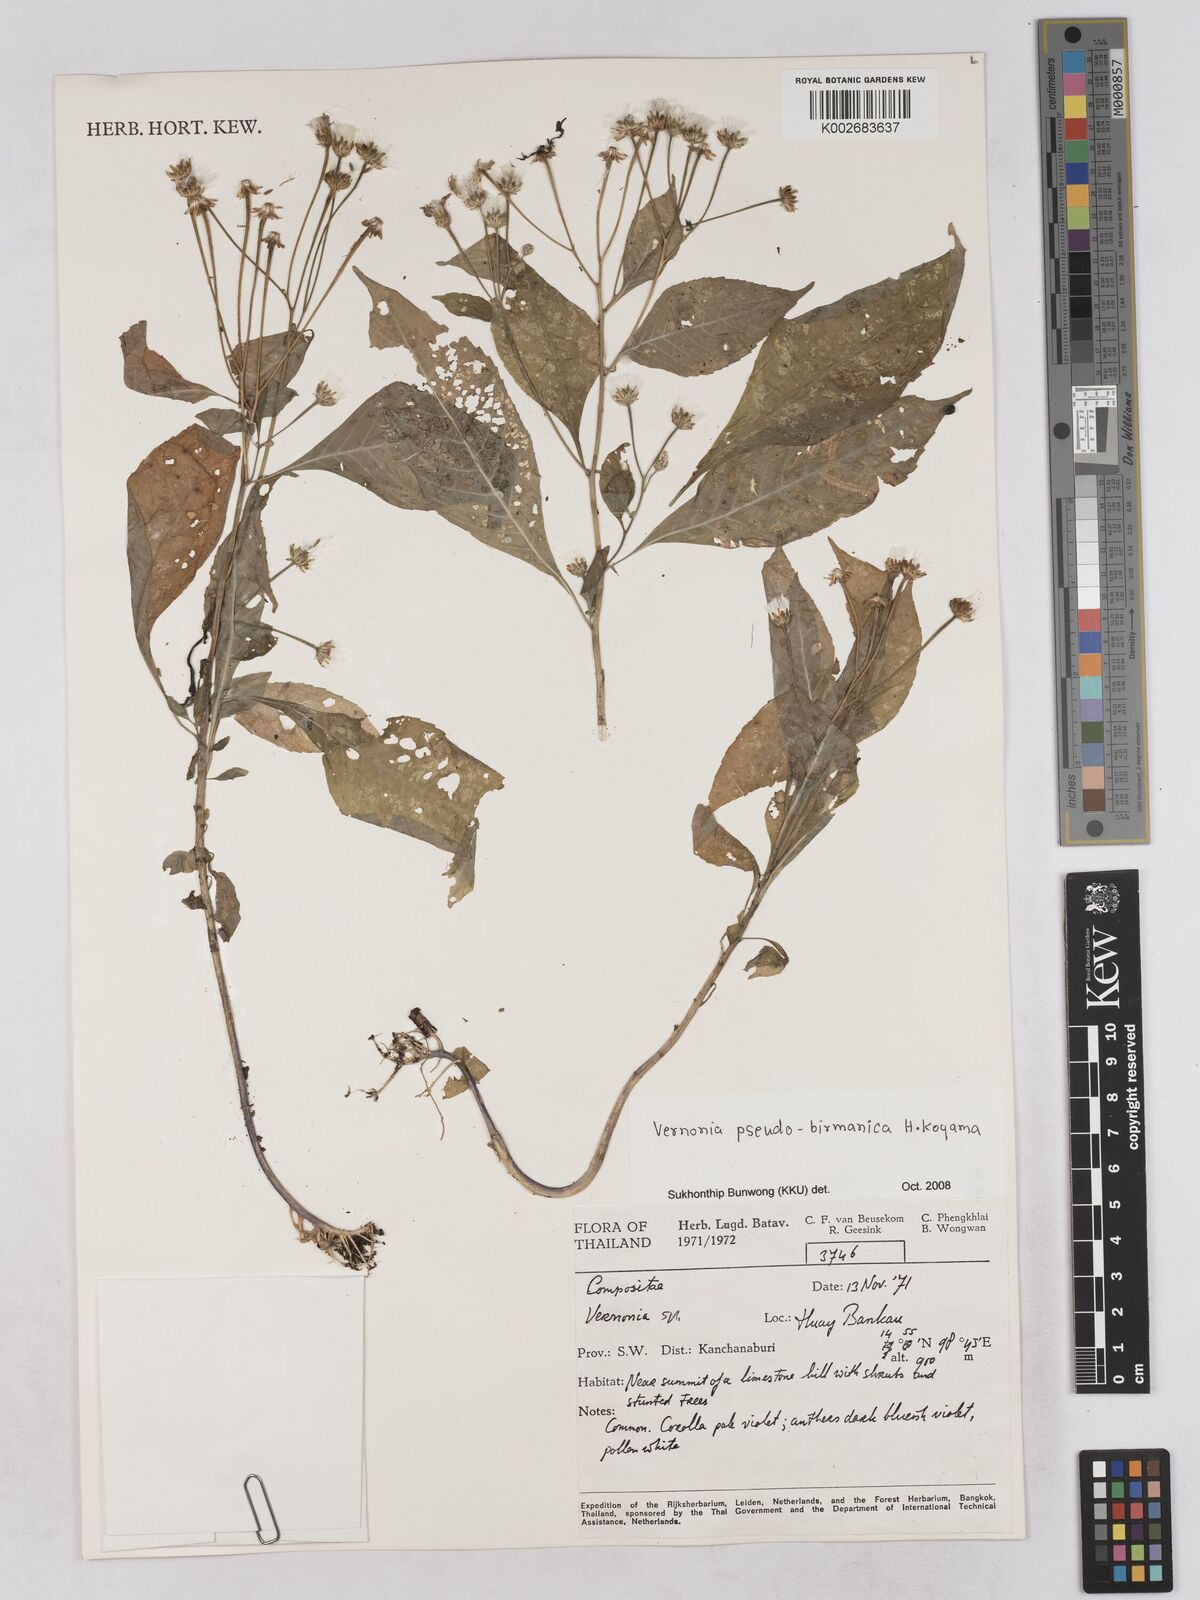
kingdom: Plantae
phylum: Tracheophyta
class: Magnoliopsida
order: Asterales
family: Asteraceae
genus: Okia
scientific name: Okia pseudobirmanica
